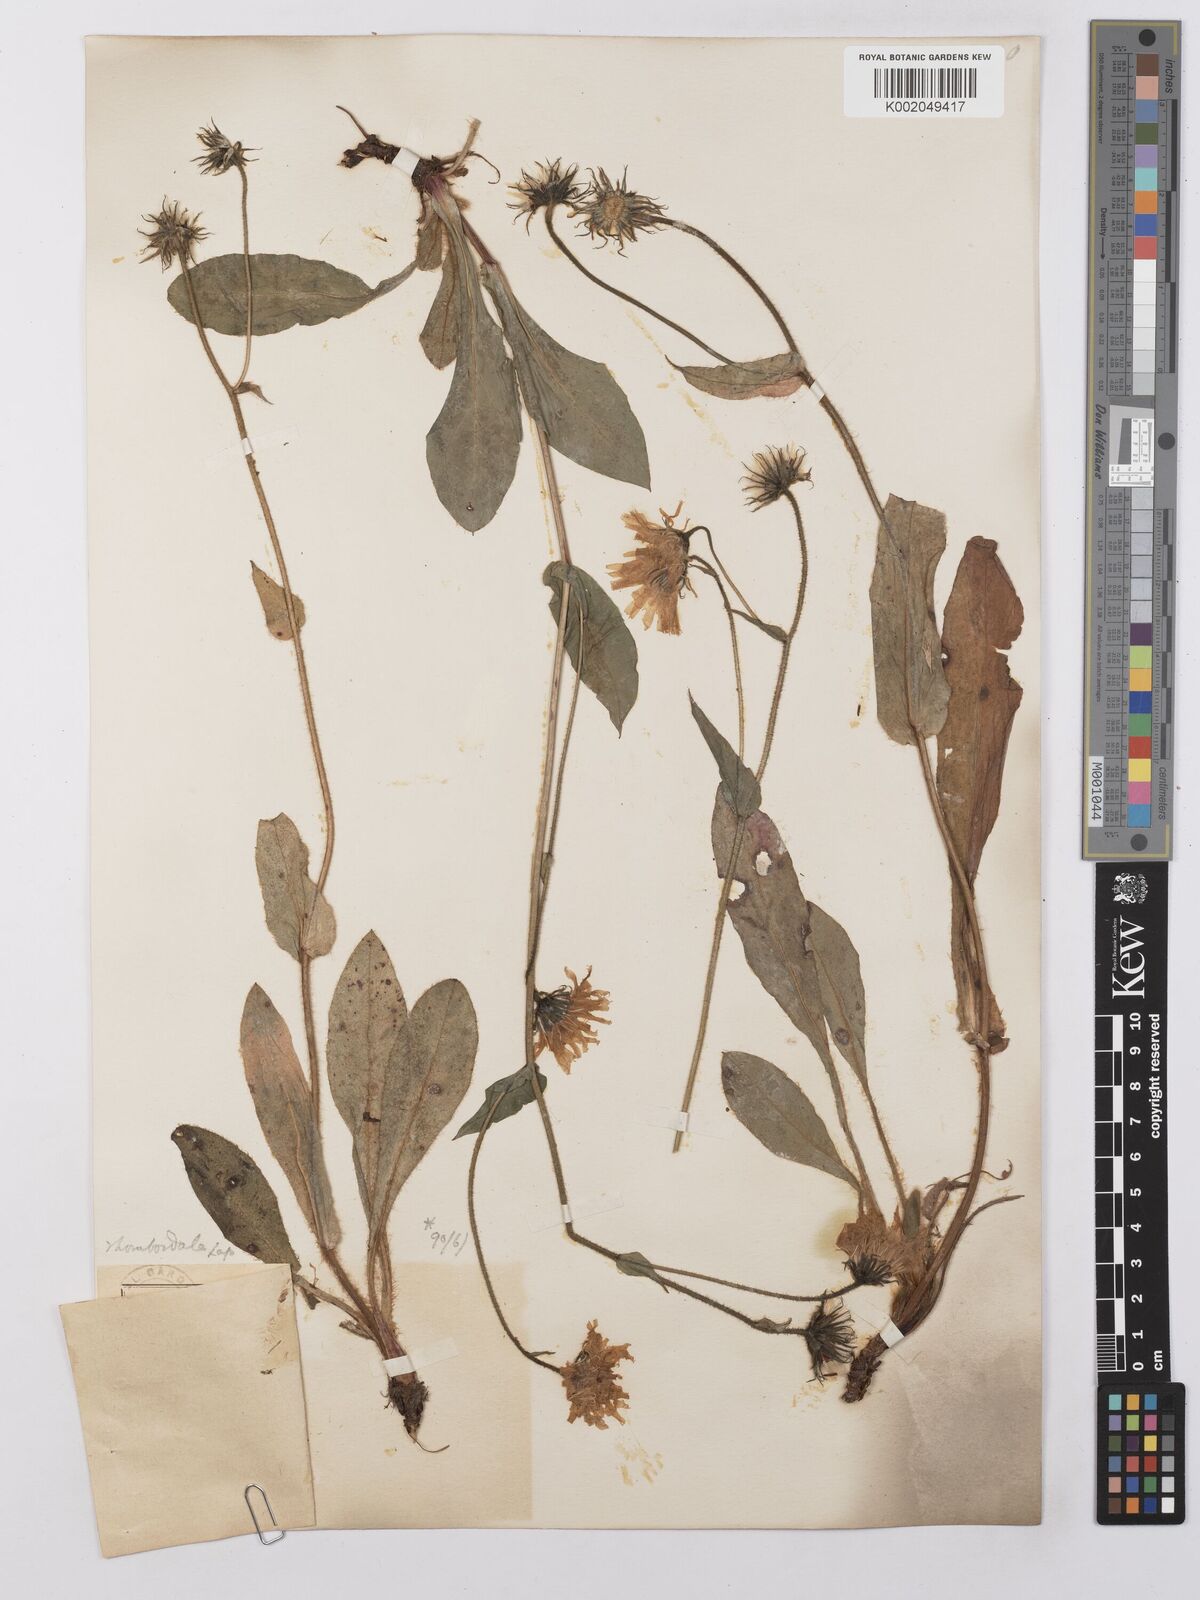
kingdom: Plantae
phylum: Tracheophyta
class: Magnoliopsida
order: Asterales
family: Asteraceae
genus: Hieracium
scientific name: Hieracium cerinthoides
